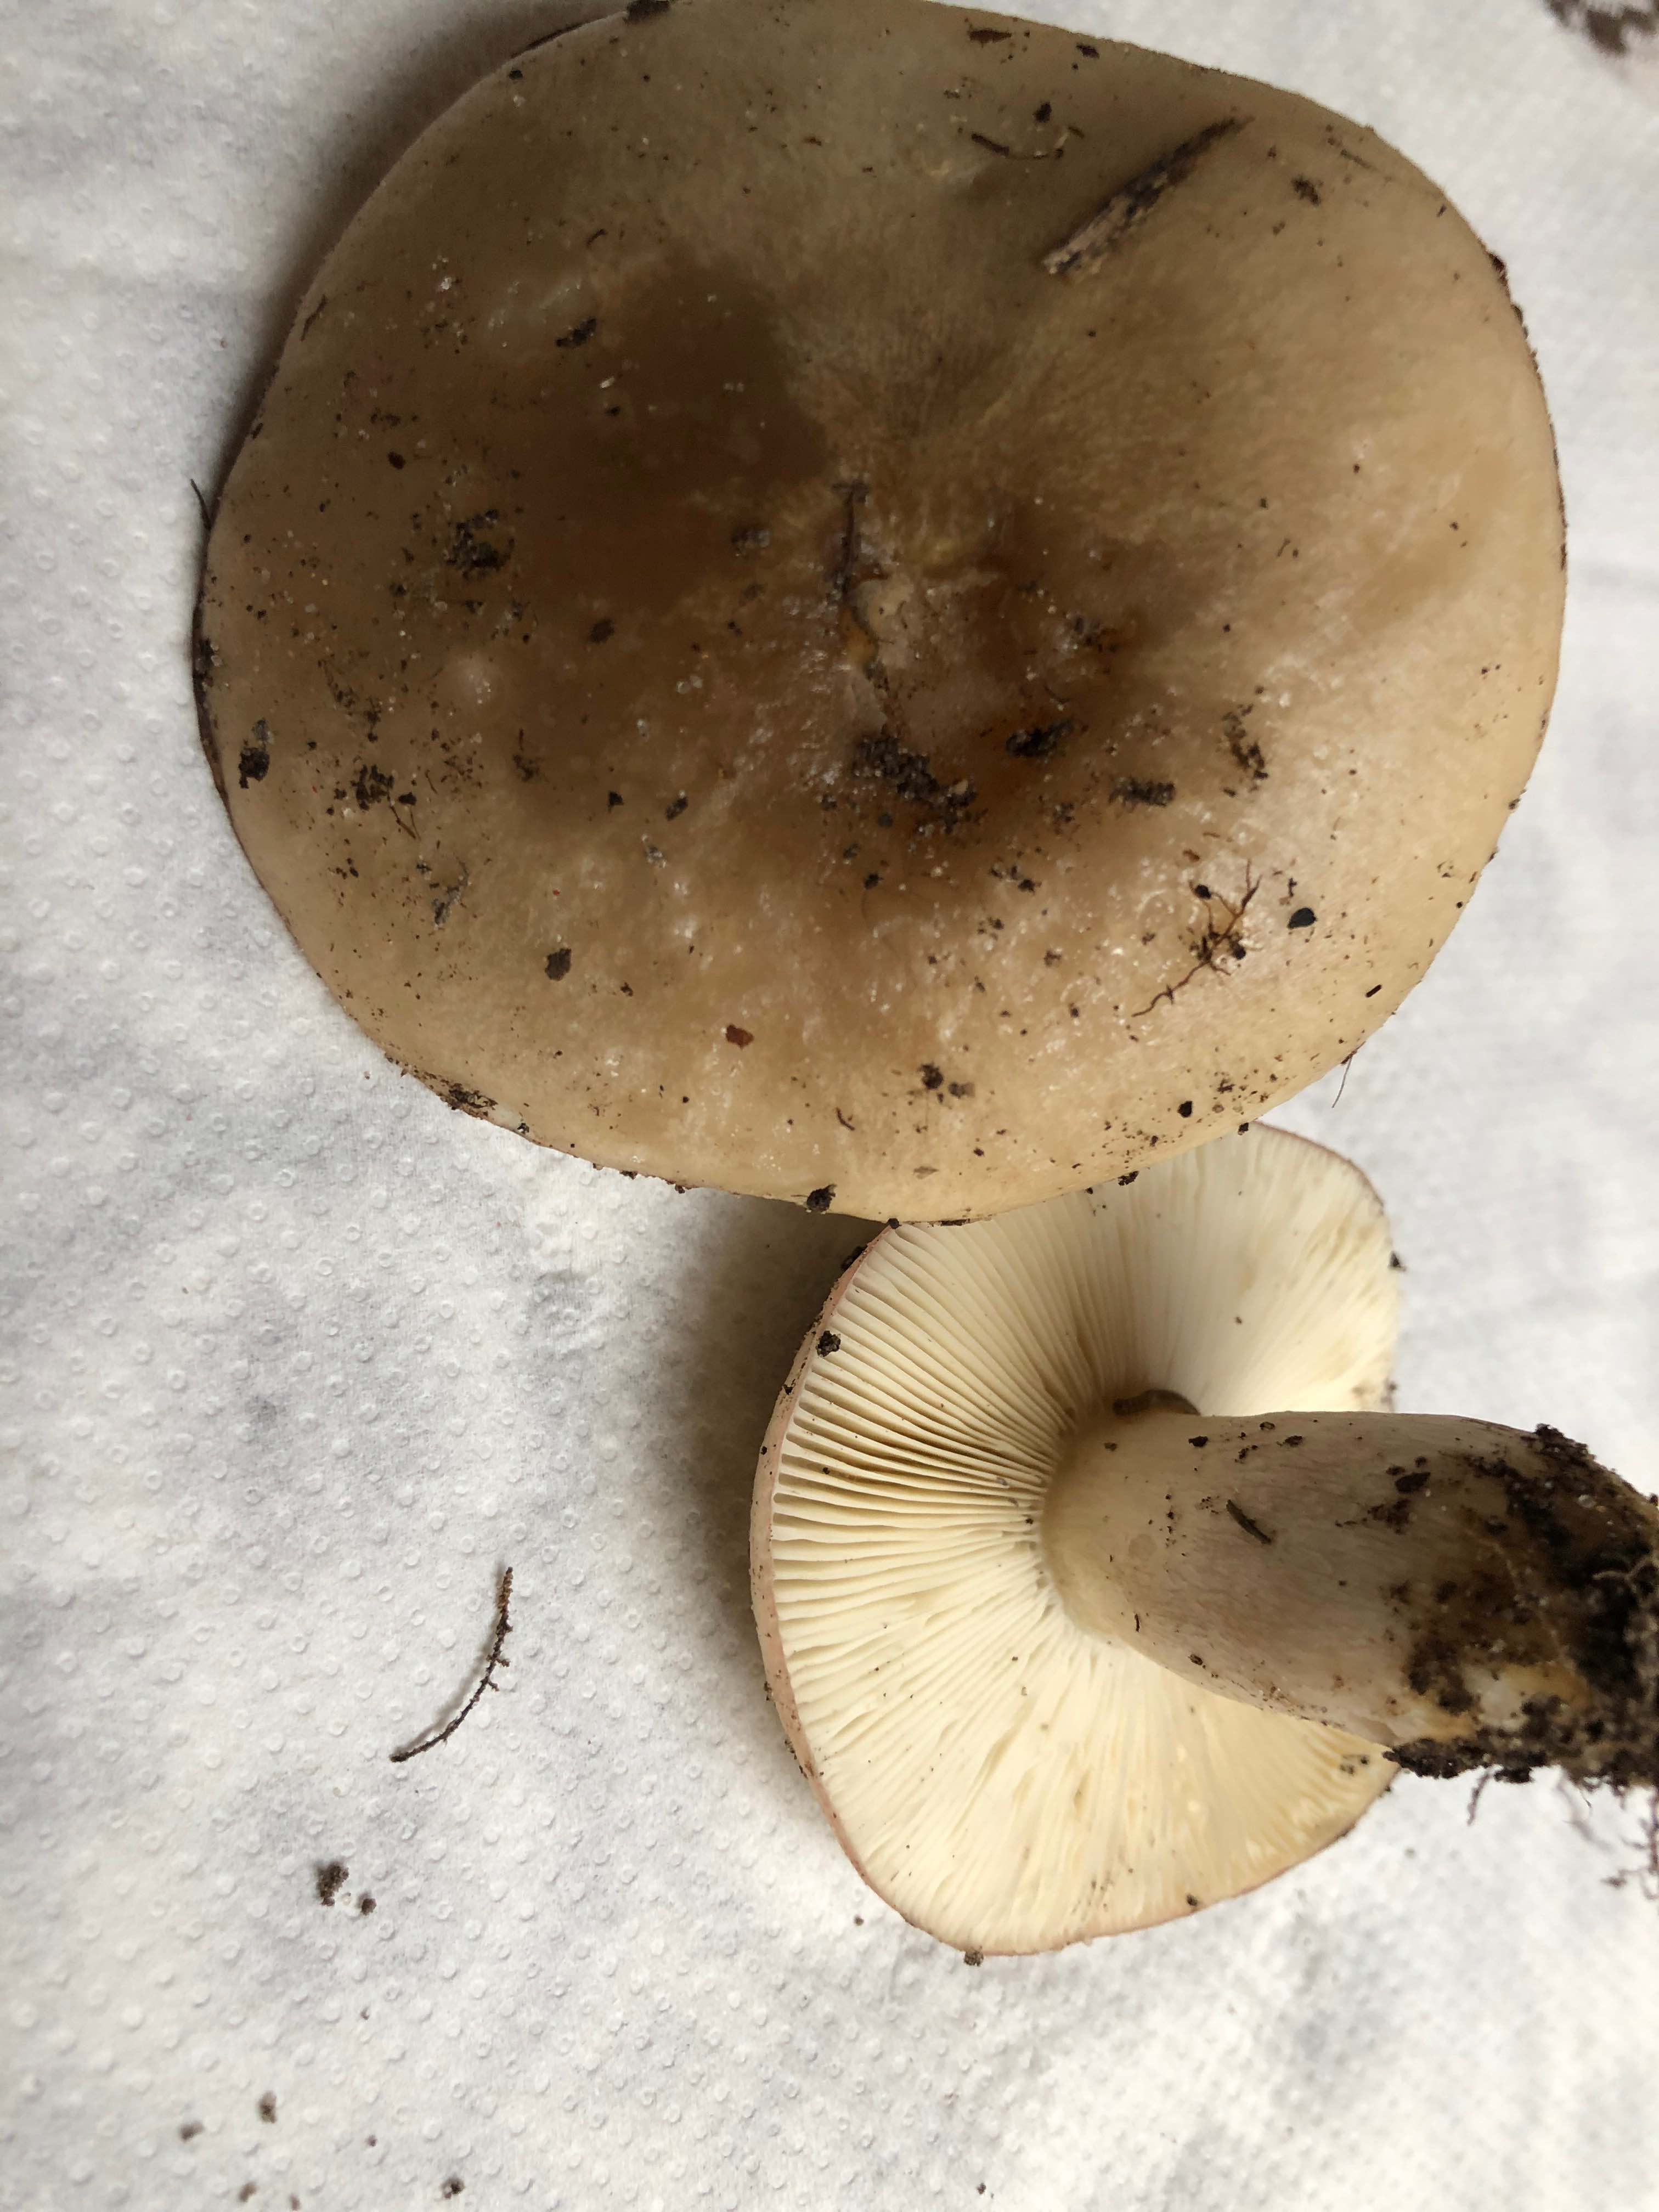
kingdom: Fungi
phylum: Basidiomycota
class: Agaricomycetes
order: Russulales
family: Russulaceae
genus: Russula
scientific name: Russula
